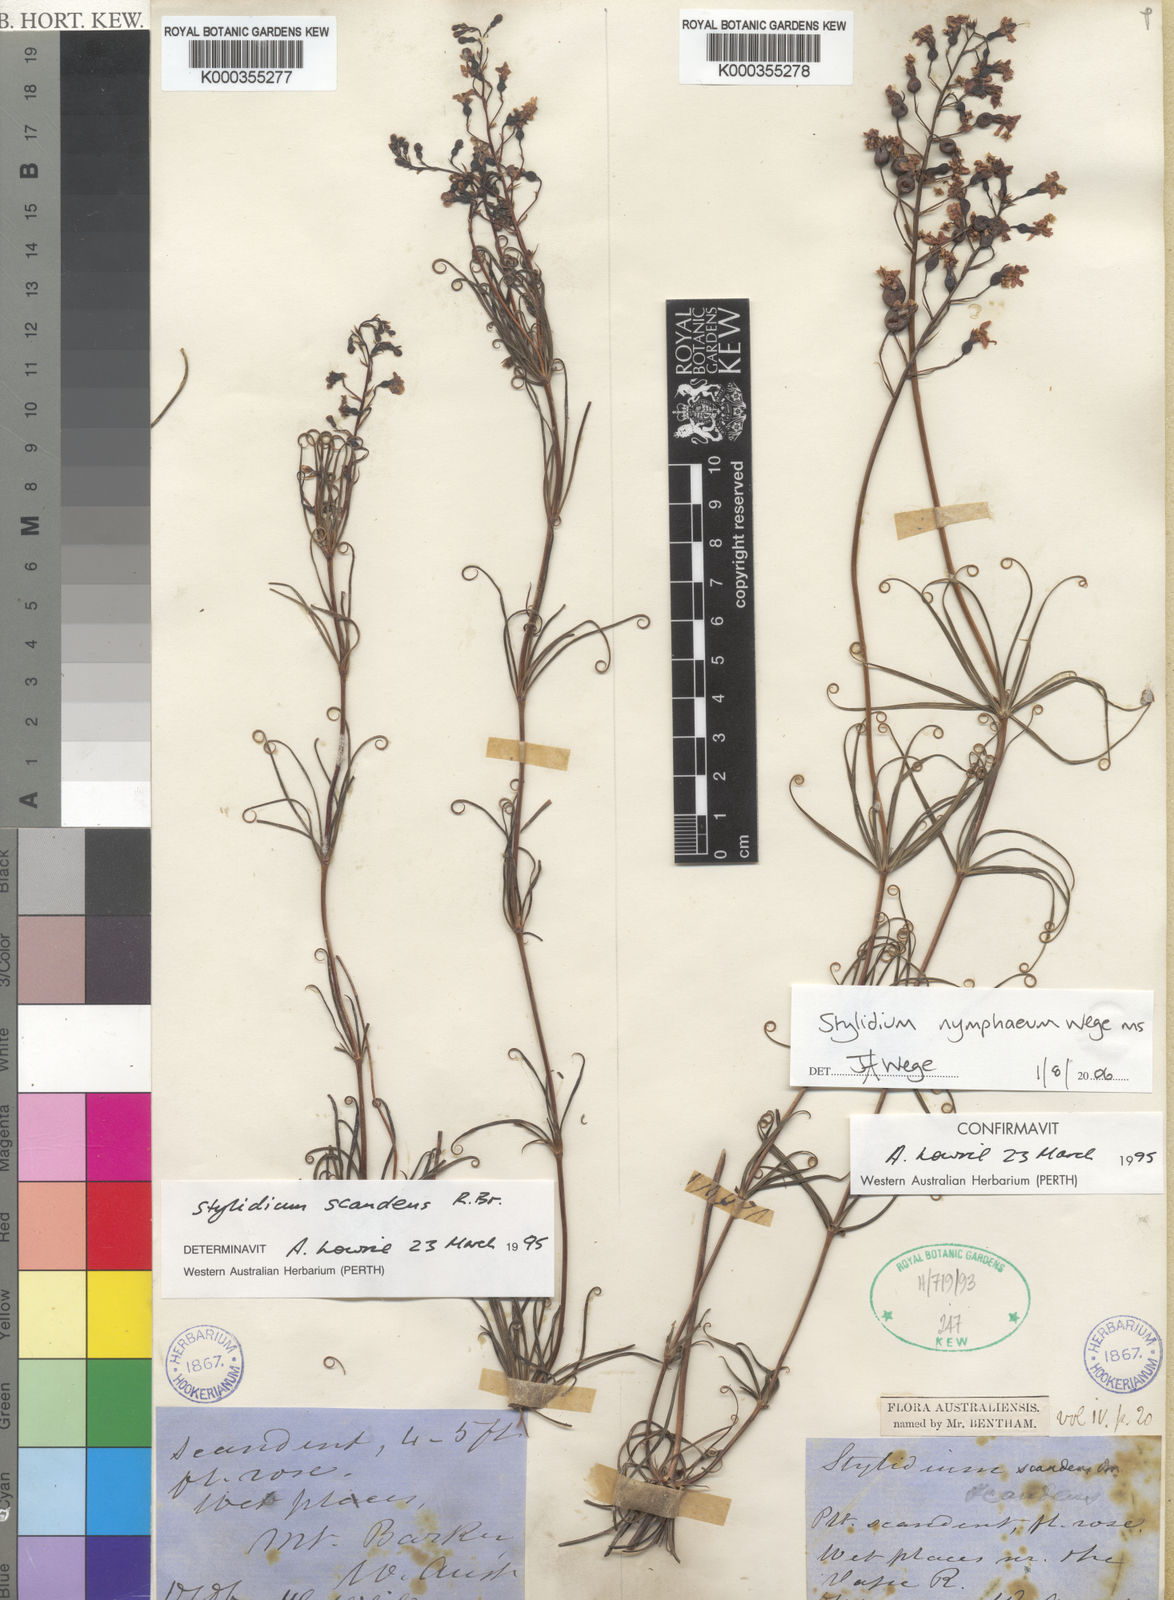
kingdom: Plantae
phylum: Tracheophyta
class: Magnoliopsida
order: Asterales
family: Stylidiaceae
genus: Stylidium
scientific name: Stylidium nymphaeum
